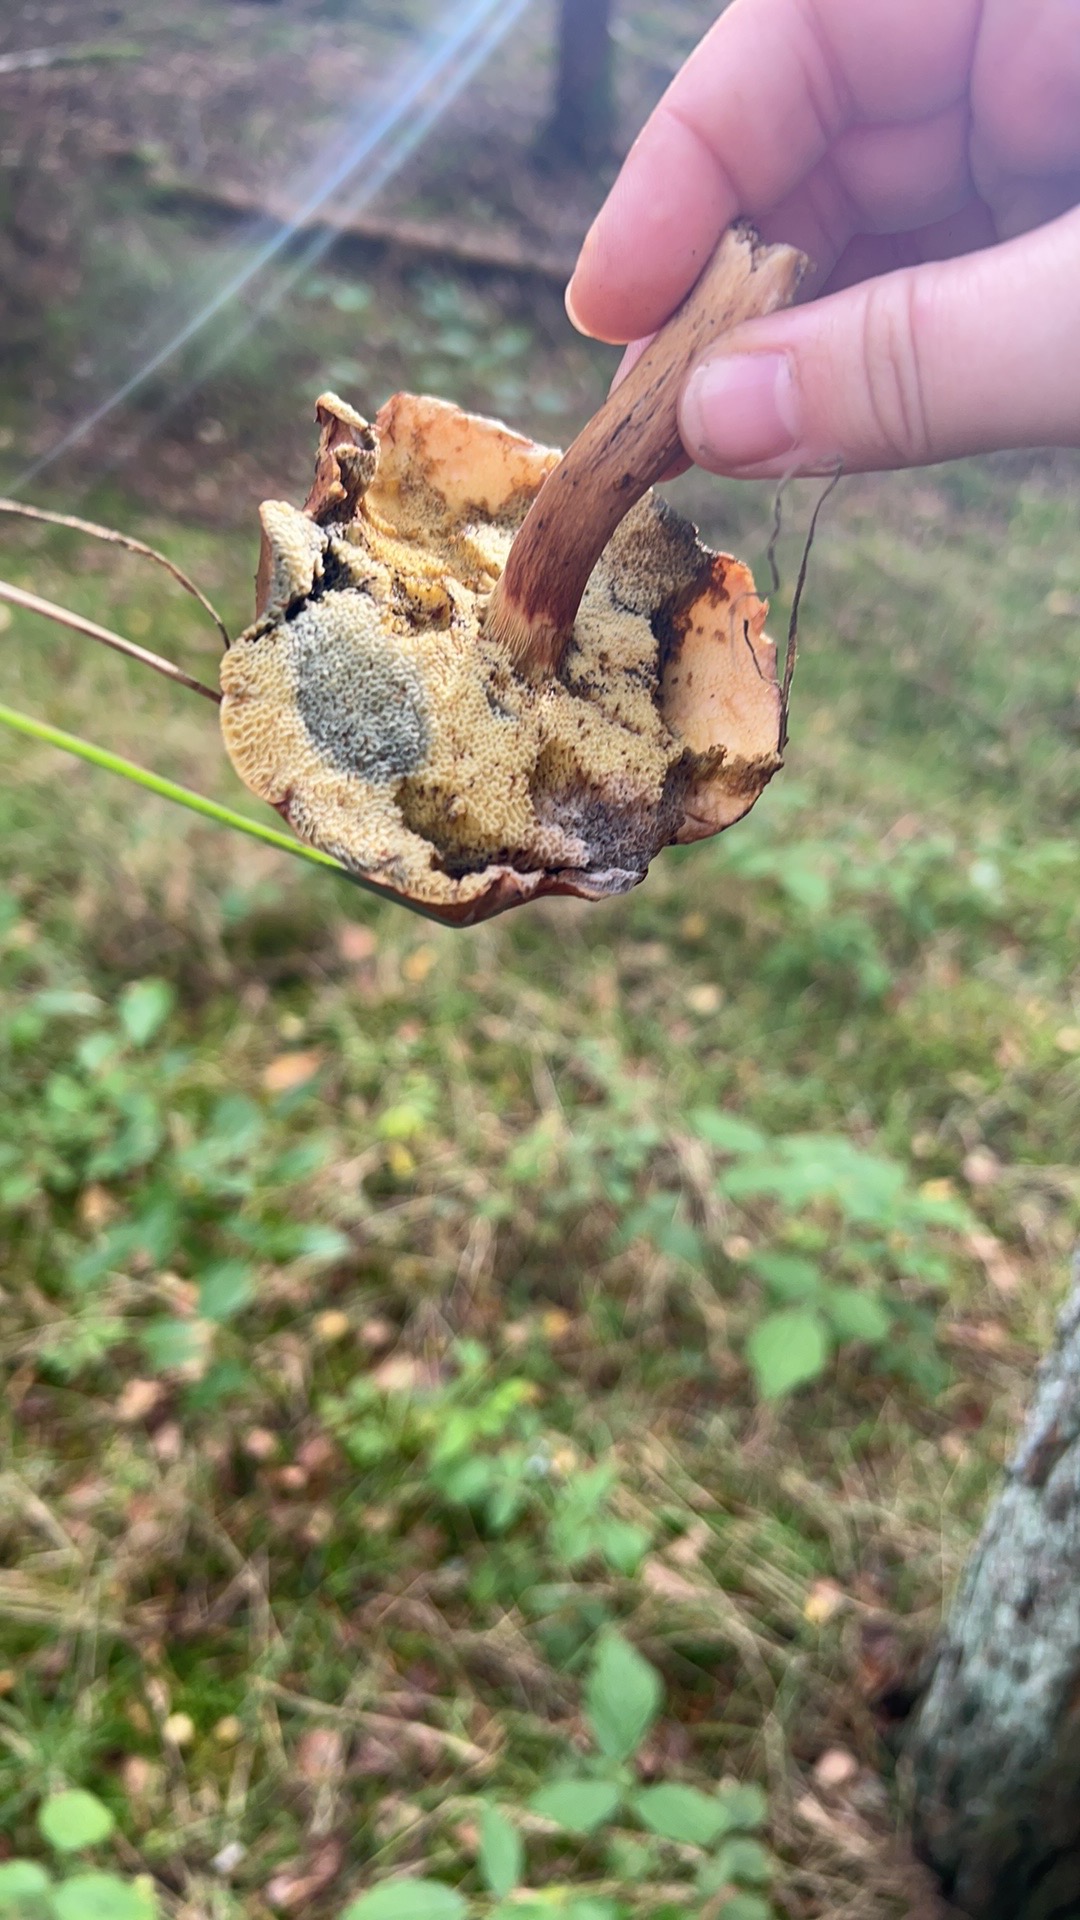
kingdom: Fungi
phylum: Basidiomycota
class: Agaricomycetes
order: Boletales
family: Boletaceae
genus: Imleria
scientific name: Imleria badia
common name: brunstokket rørhat
